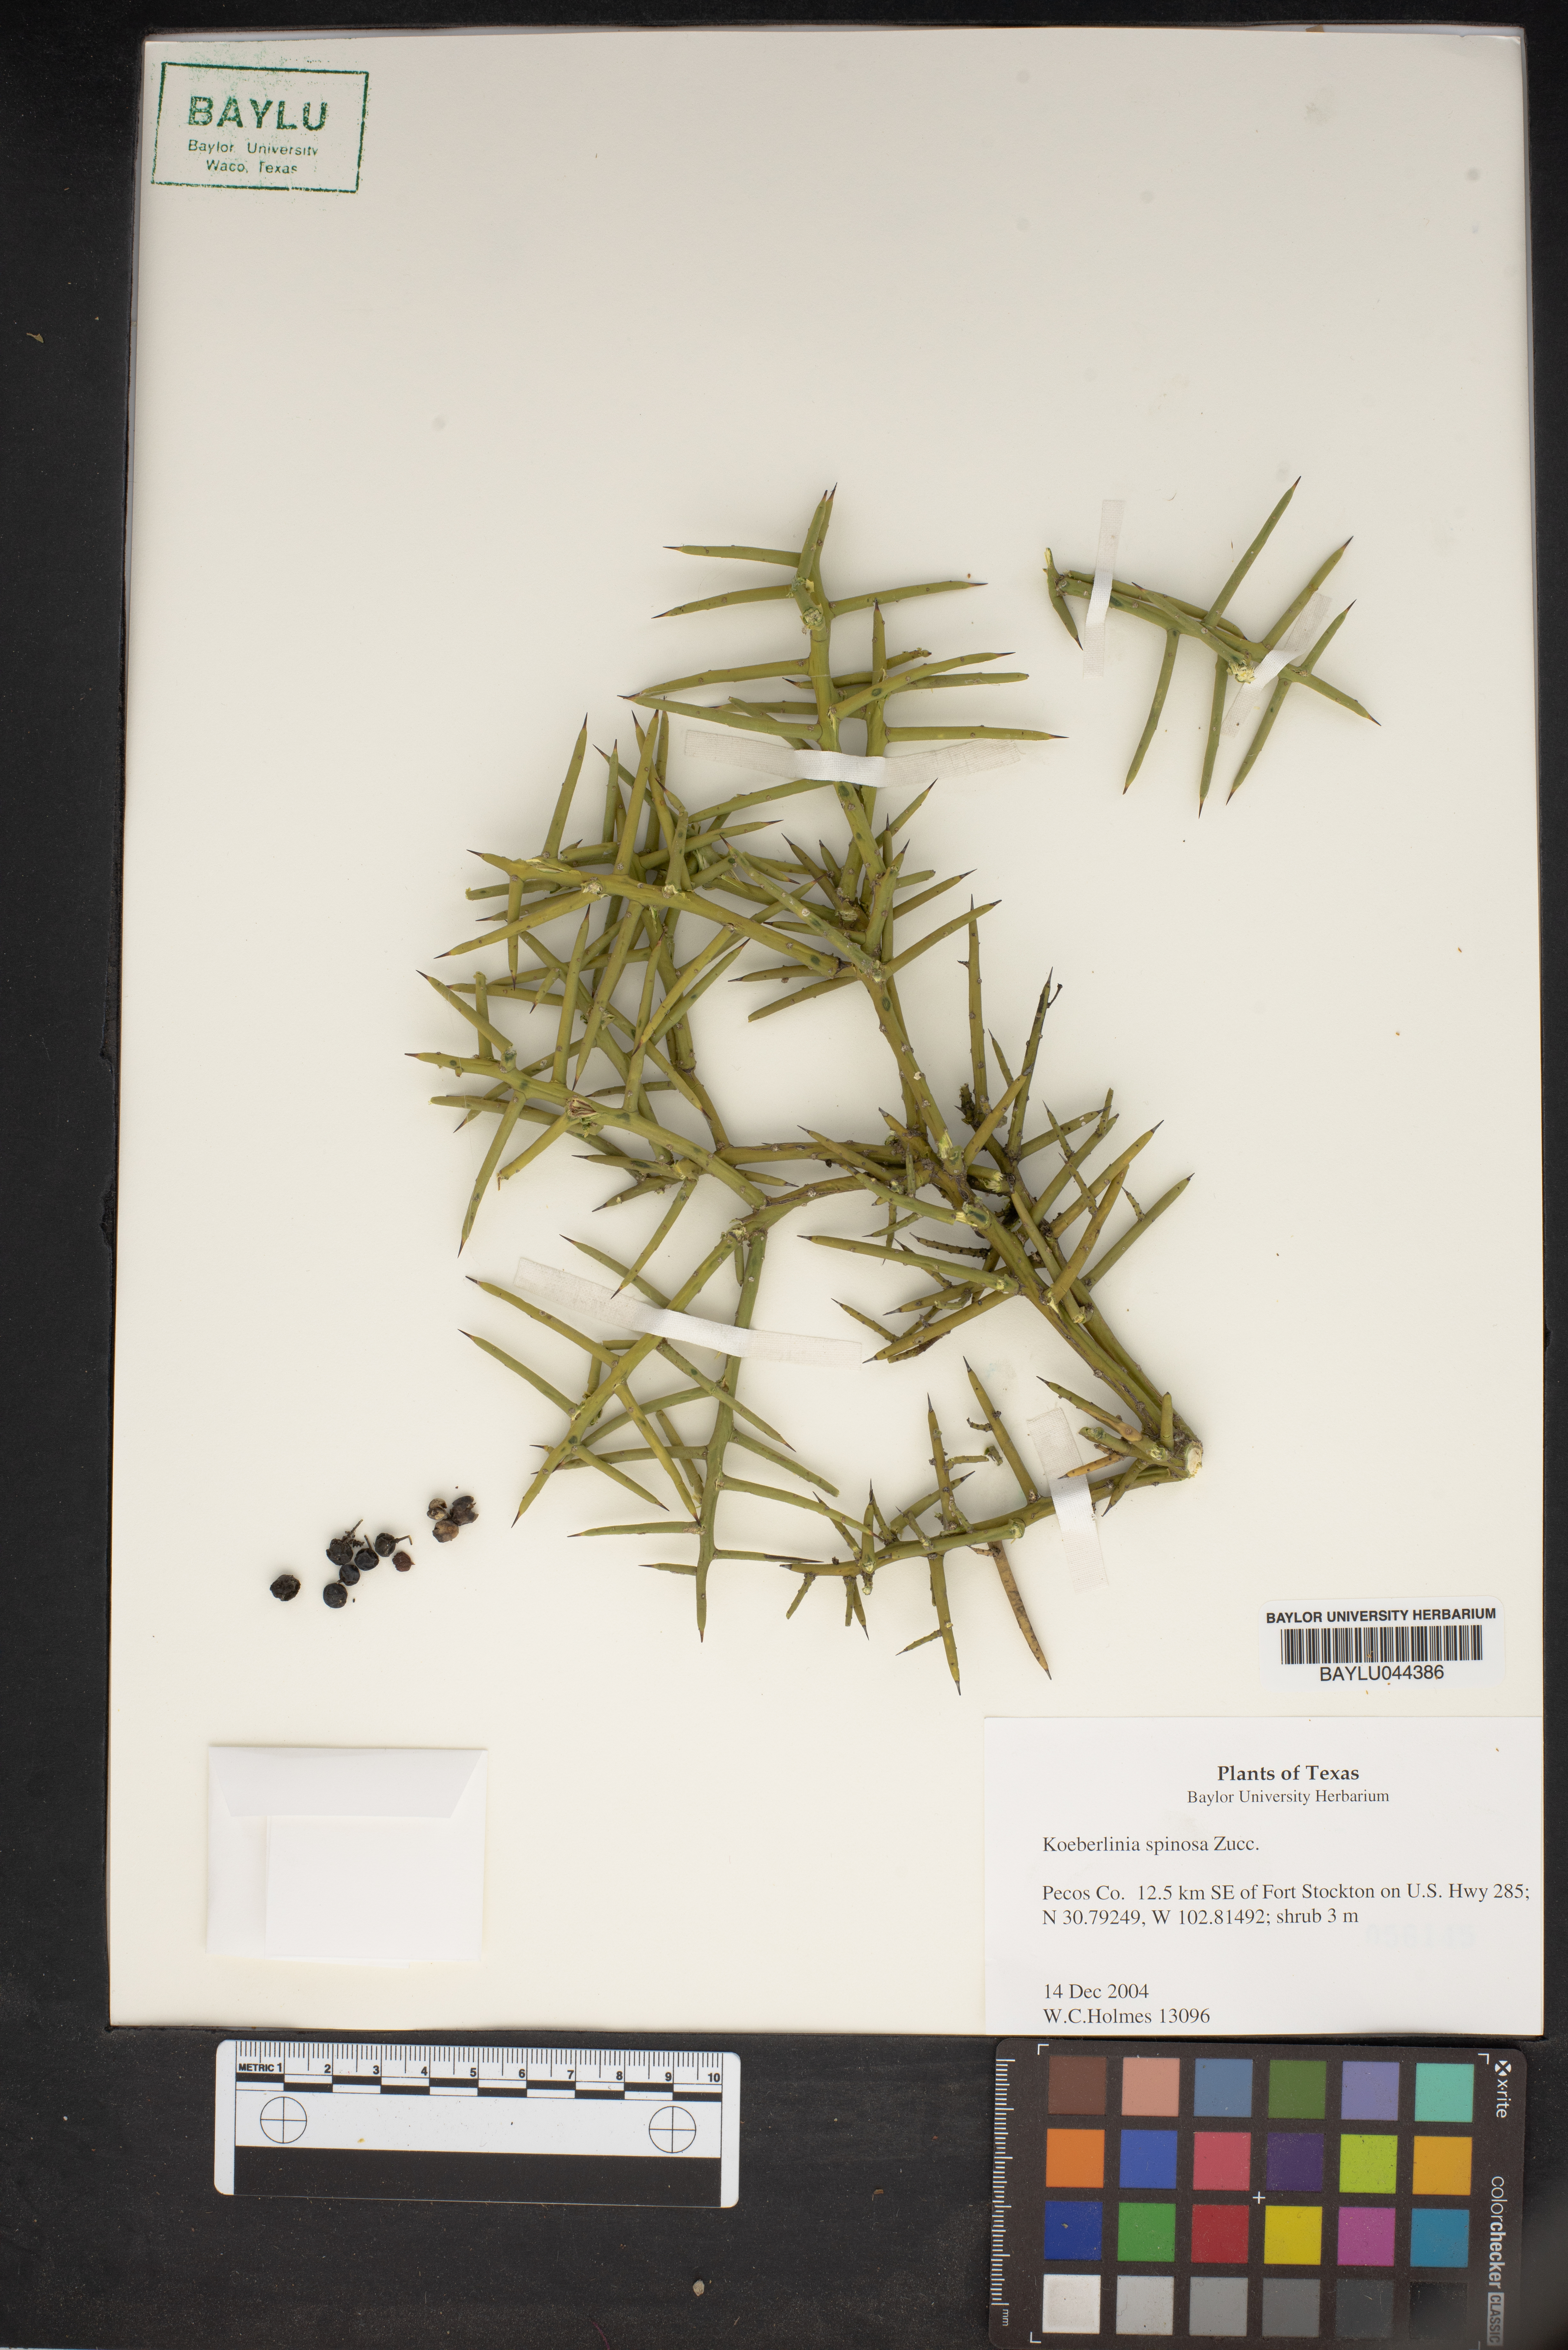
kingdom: Plantae
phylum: Tracheophyta
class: Magnoliopsida
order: Brassicales
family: Koeberliniaceae
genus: Koeberlinia
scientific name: Koeberlinia spinosa
